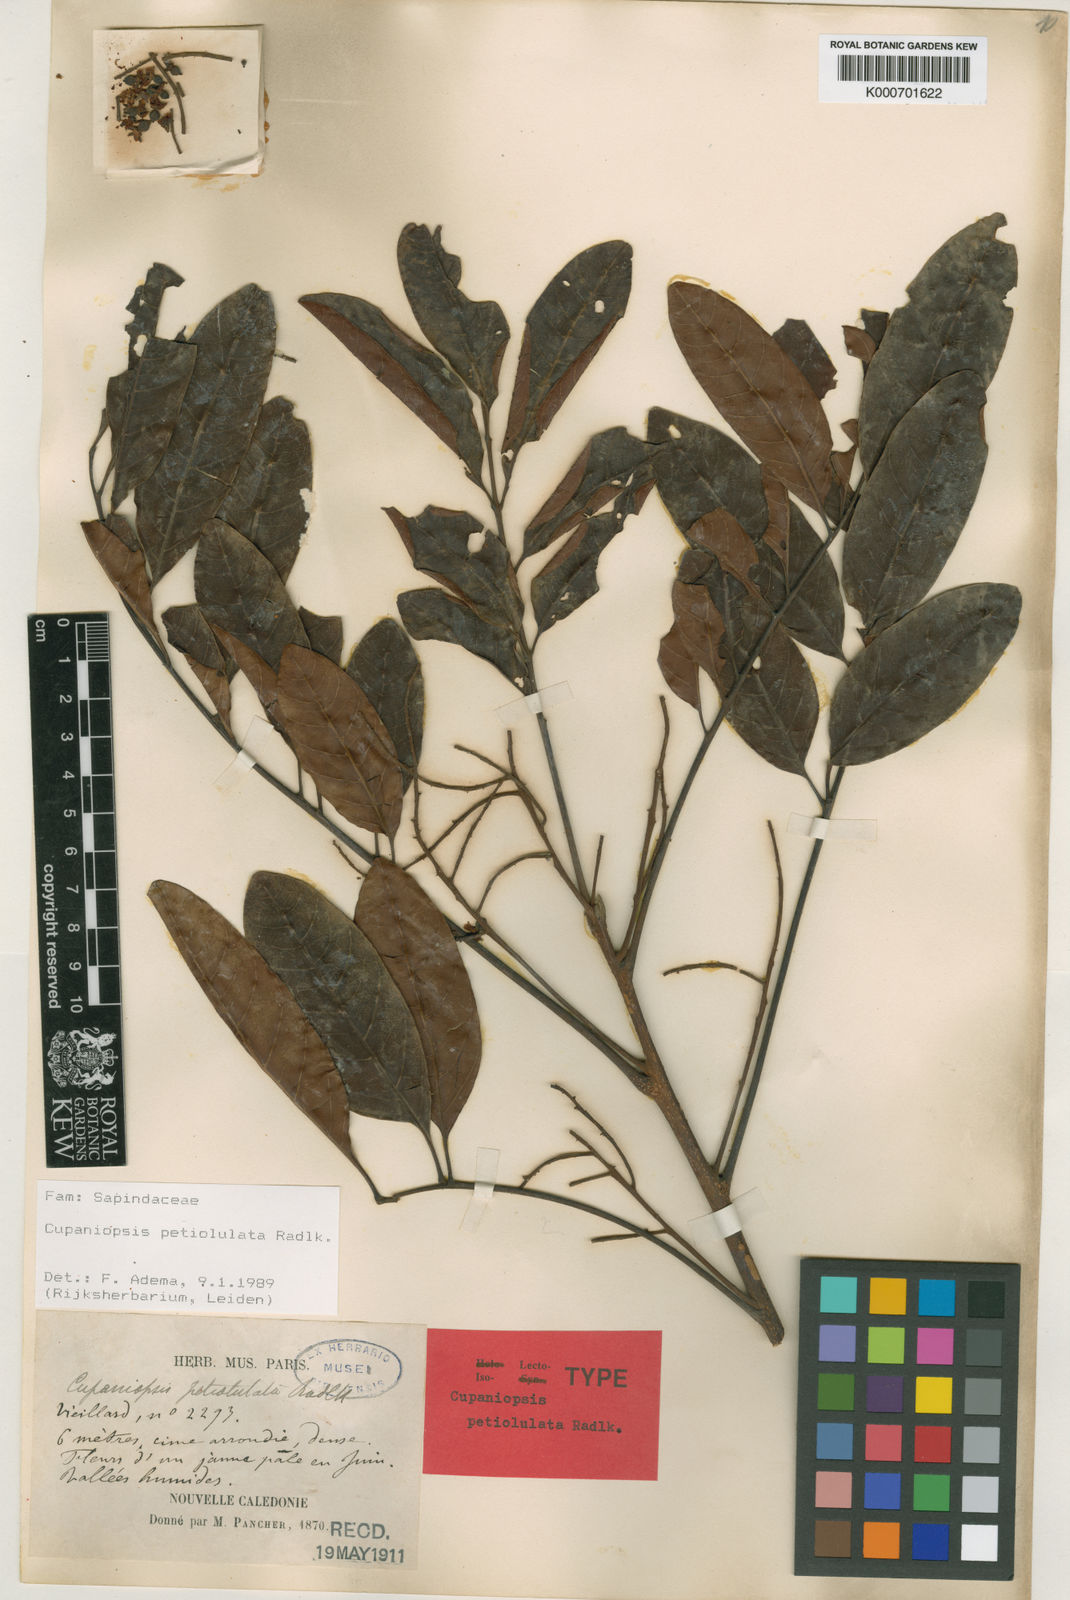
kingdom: Plantae
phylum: Tracheophyta
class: Magnoliopsida
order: Sapindales
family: Sapindaceae
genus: Cupaniopsis
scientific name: Cupaniopsis petiolulata
